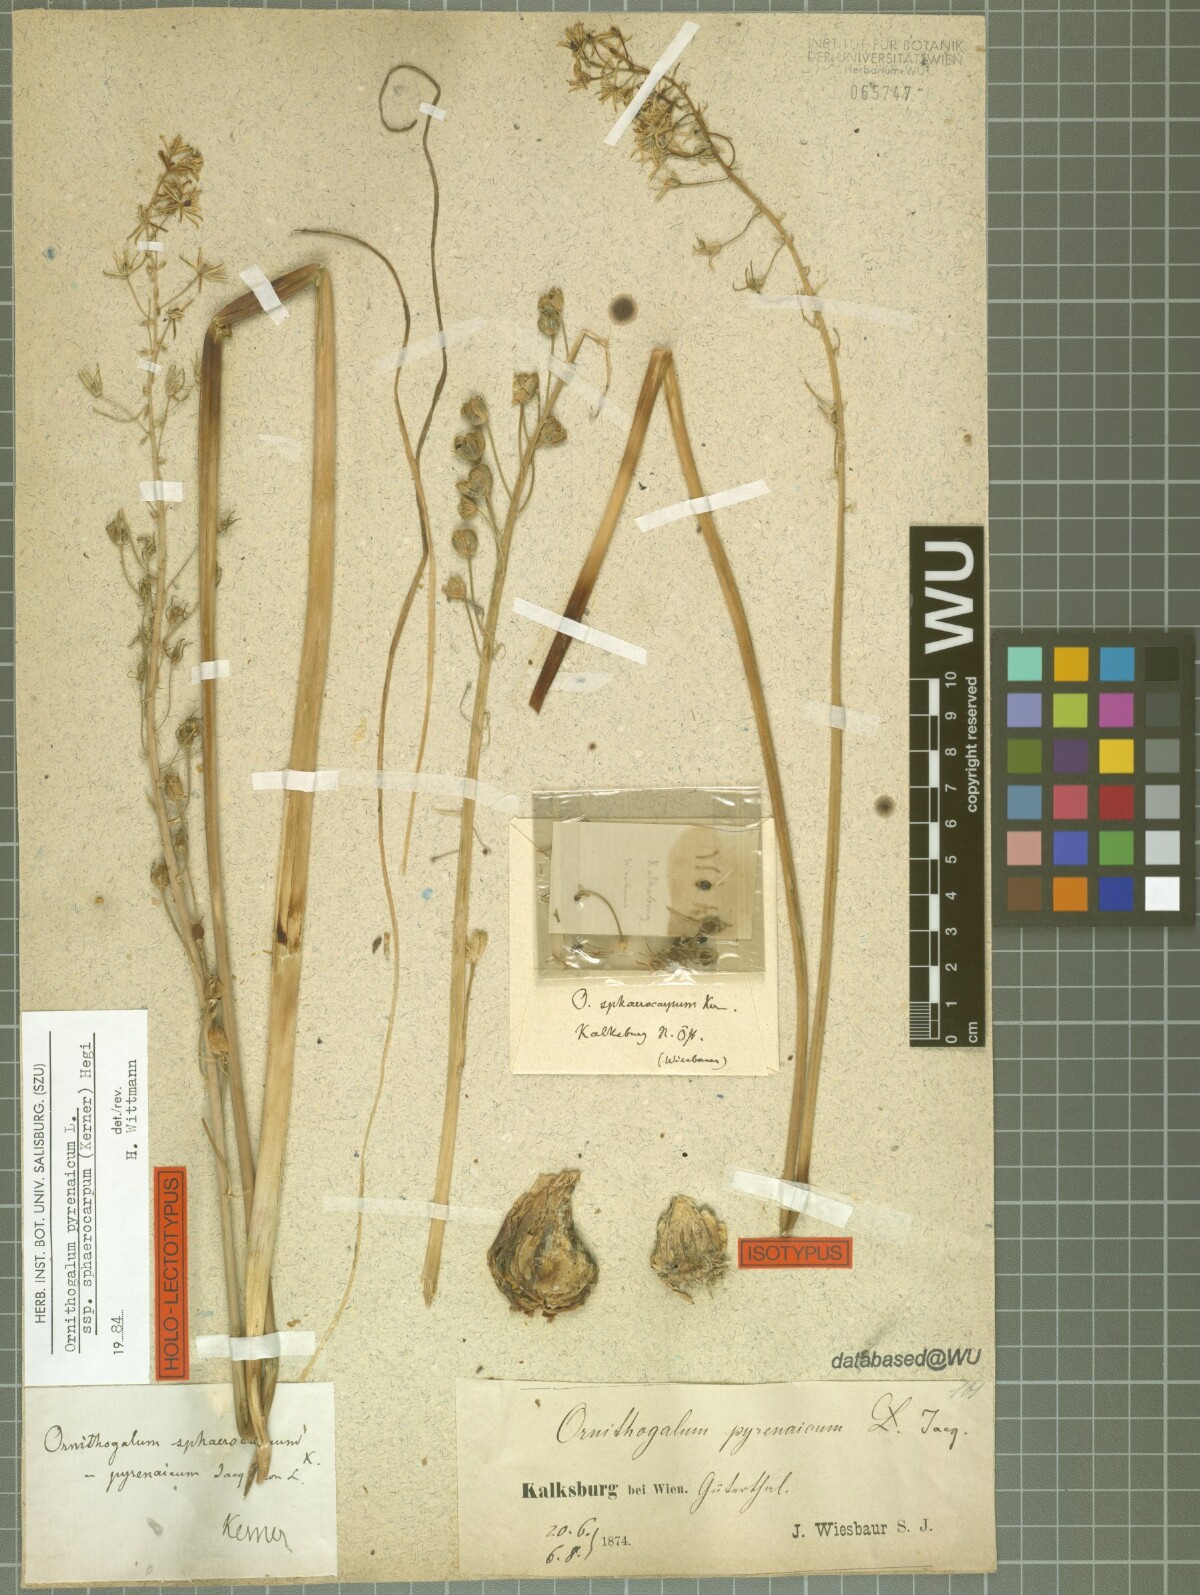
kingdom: Plantae
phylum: Tracheophyta
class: Liliopsida
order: Asparagales
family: Asparagaceae
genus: Ornithogalum
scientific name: Ornithogalum sphaerocarpum
